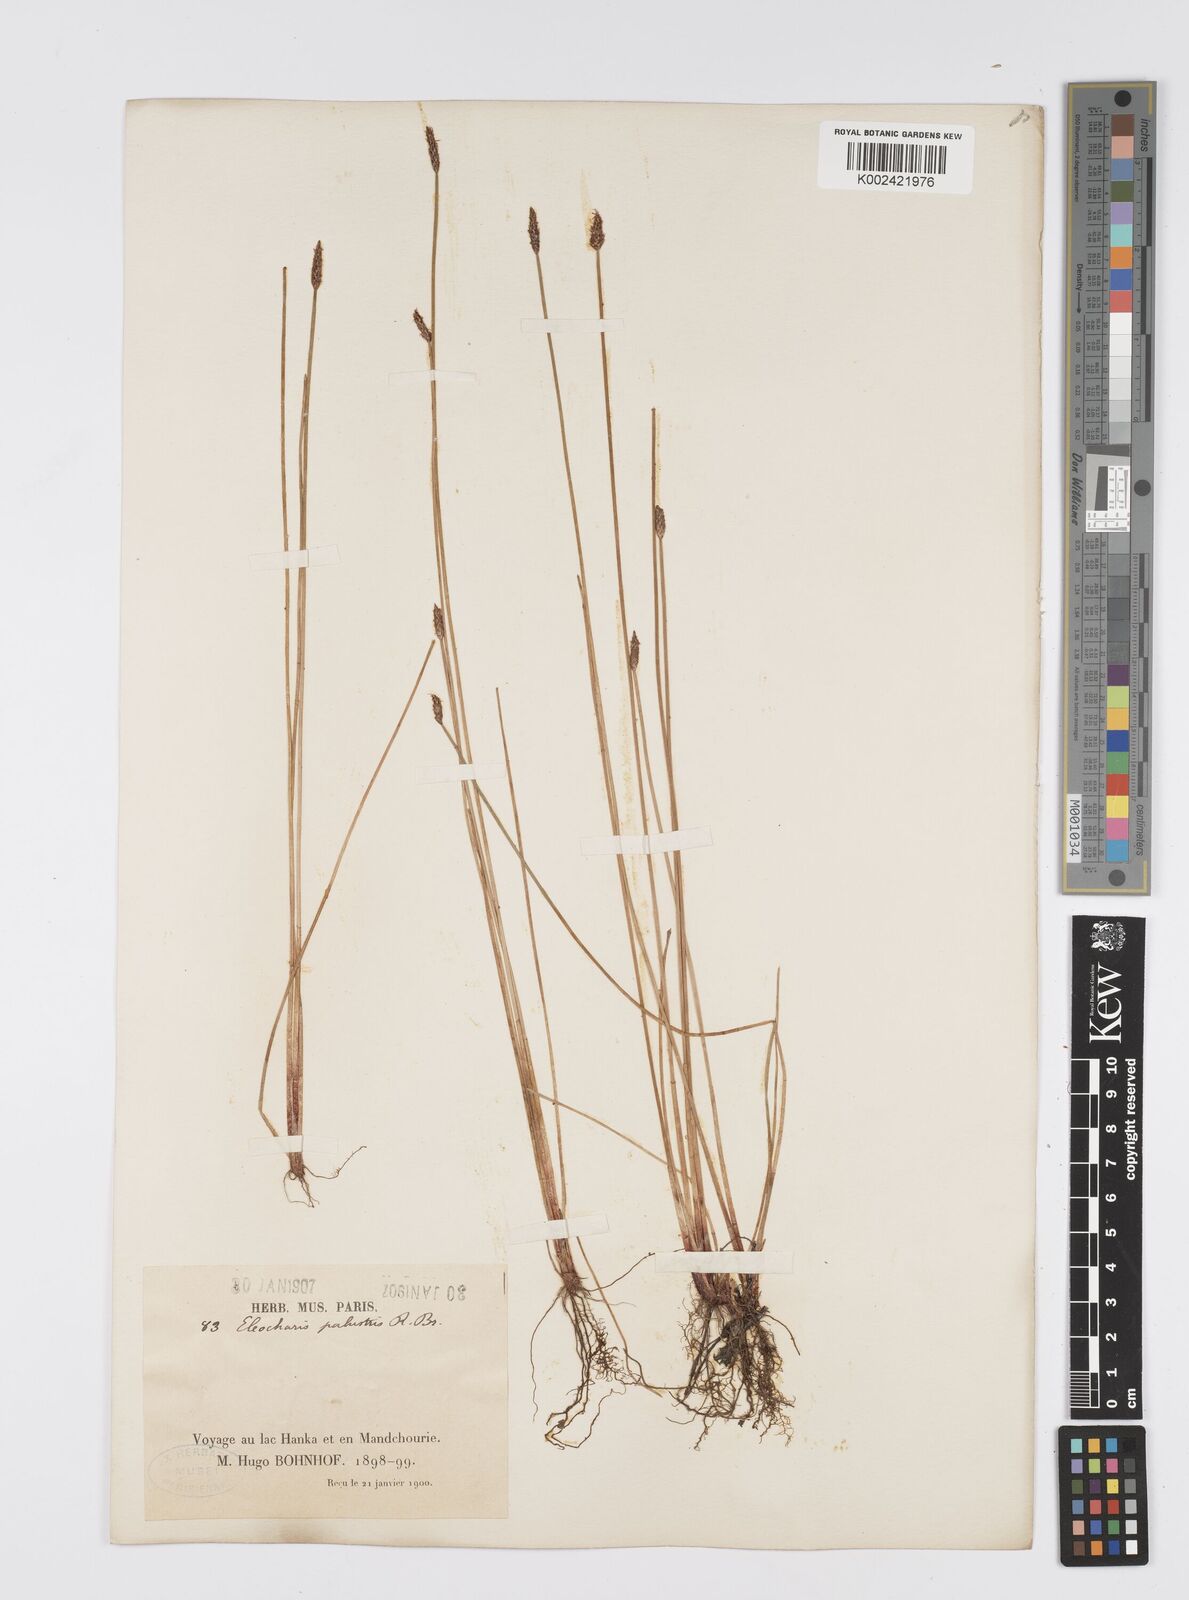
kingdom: Plantae
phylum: Tracheophyta
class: Liliopsida
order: Poales
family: Cyperaceae
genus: Eleocharis
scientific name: Eleocharis palustris
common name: Common spike-rush
